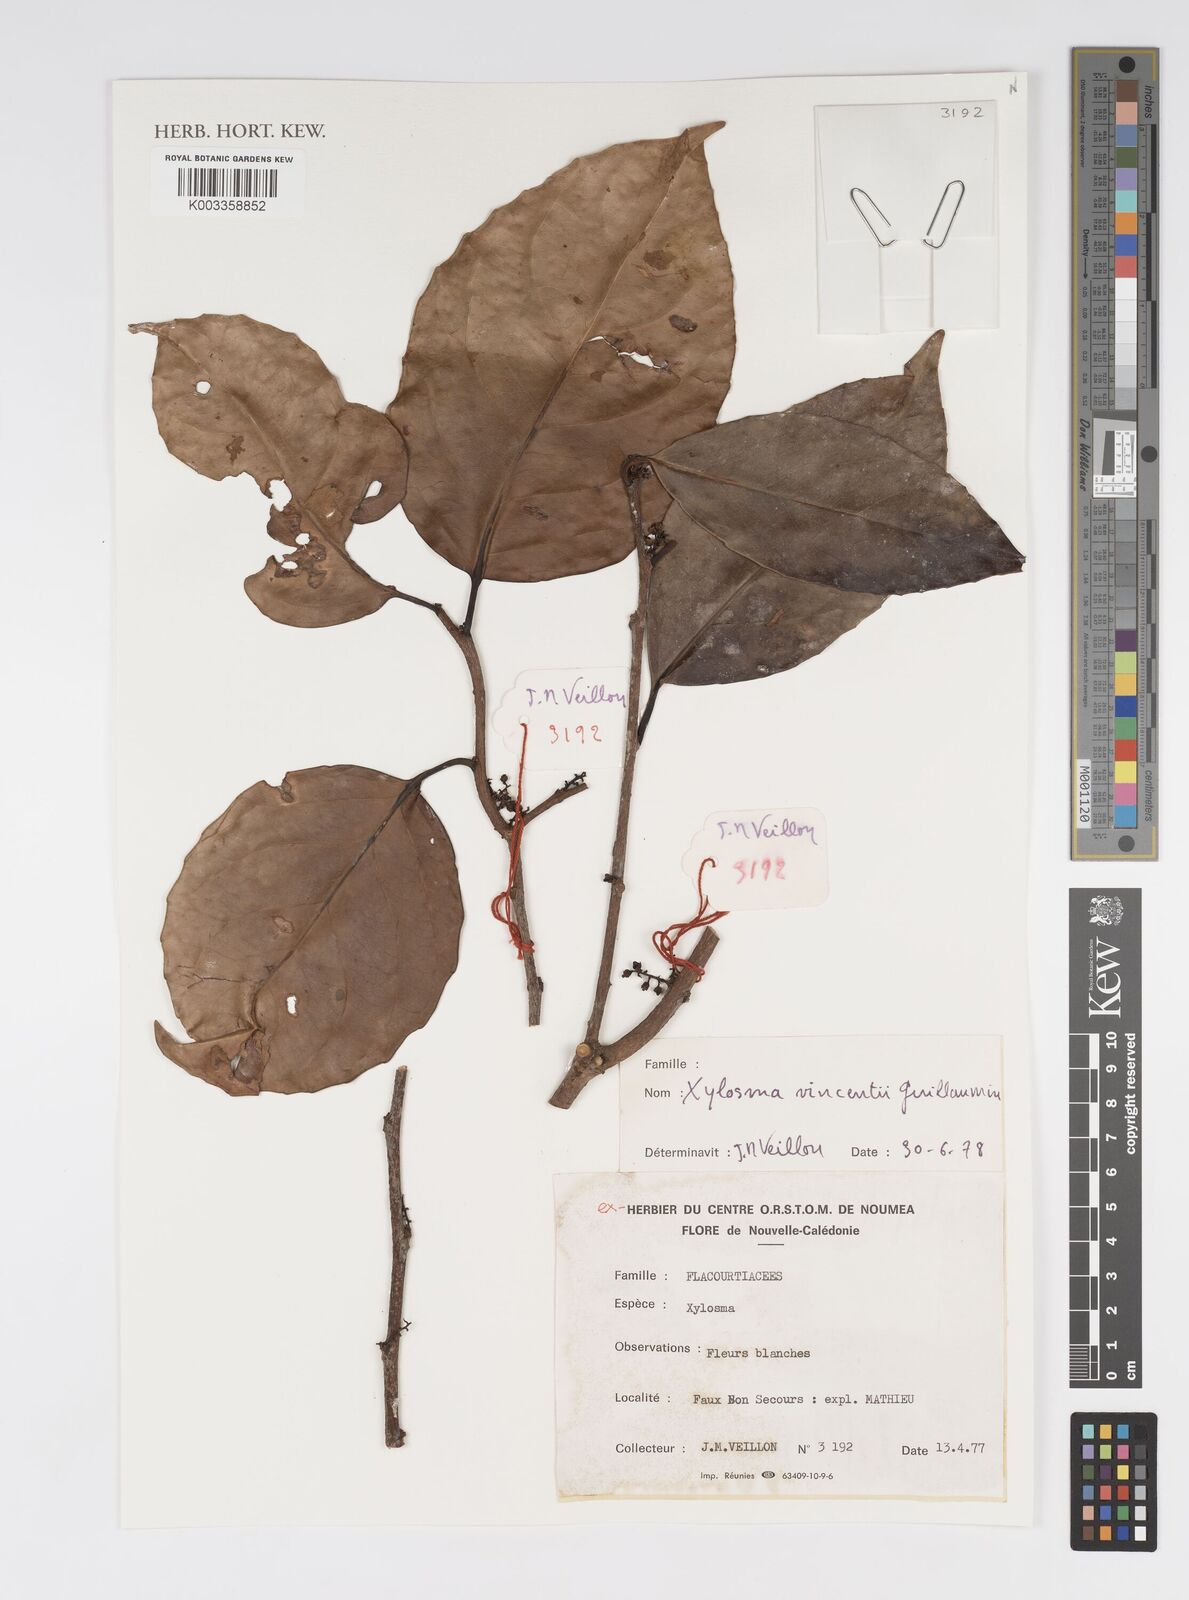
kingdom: Plantae
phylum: Tracheophyta
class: Magnoliopsida
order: Malpighiales
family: Salicaceae
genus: Xylosma
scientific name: Xylosma vincentii
